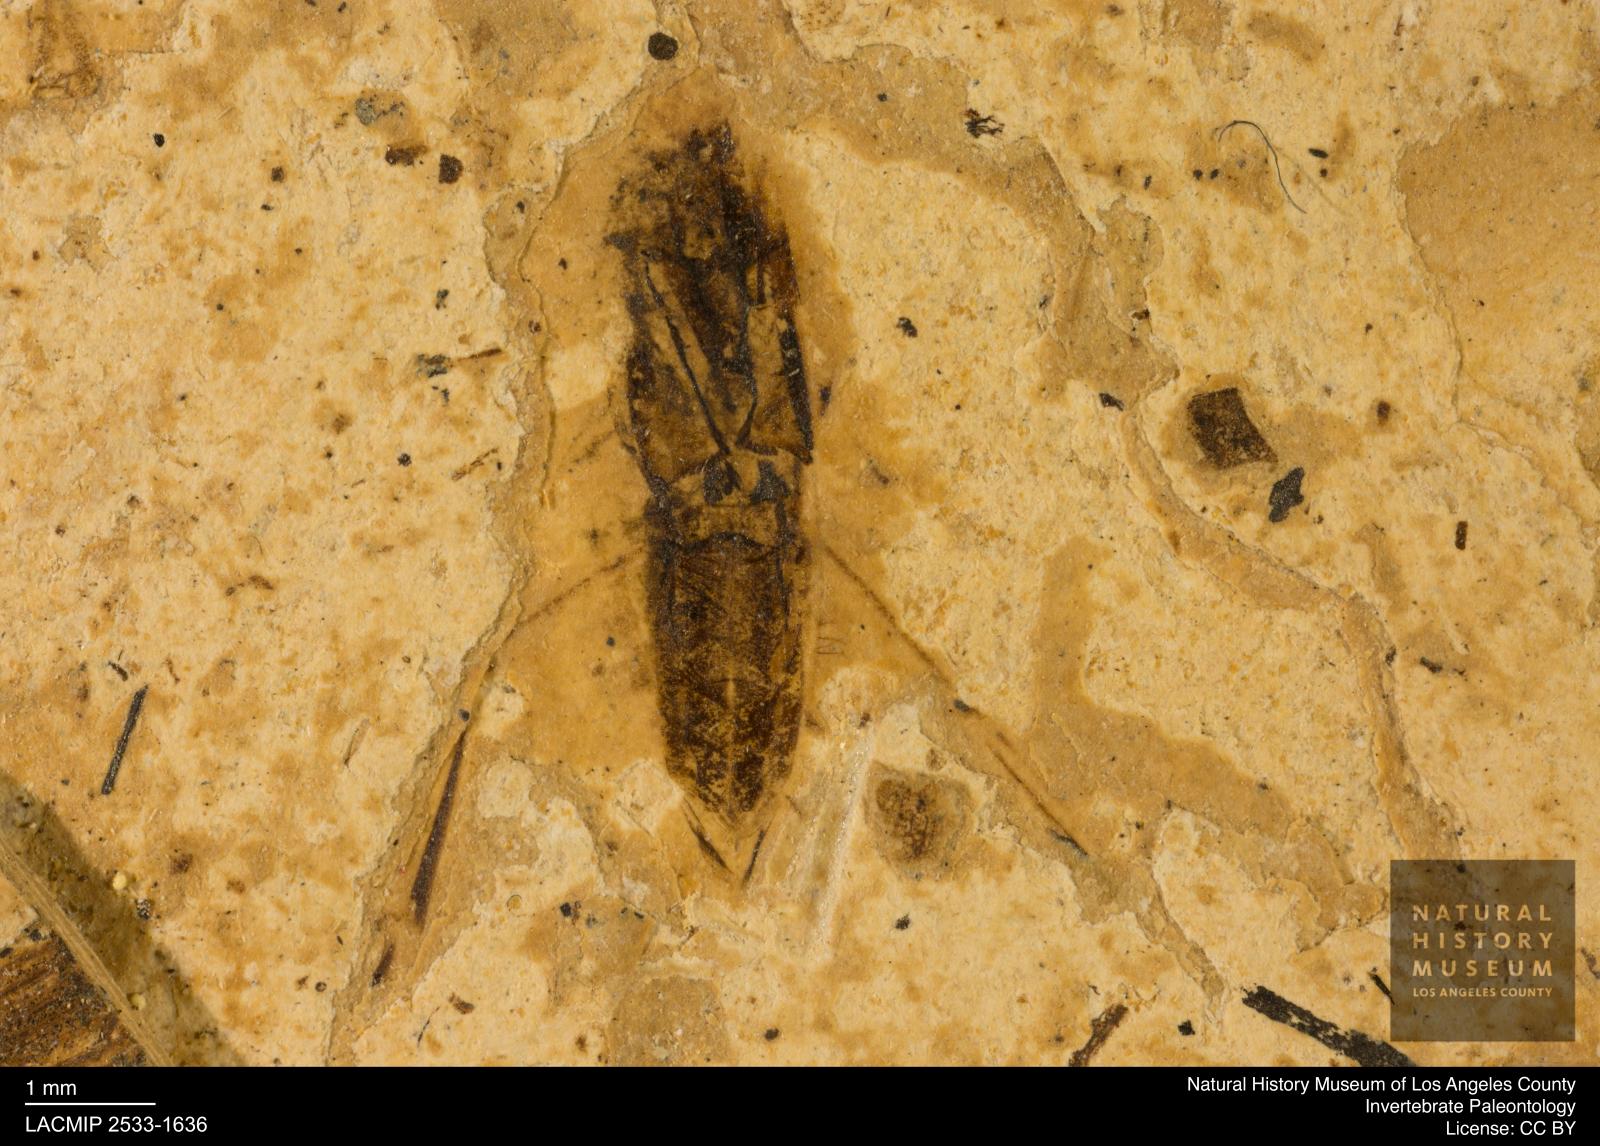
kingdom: Animalia
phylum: Arthropoda
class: Insecta
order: Hemiptera
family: Notonectidae
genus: Notonecta
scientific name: Notonecta
